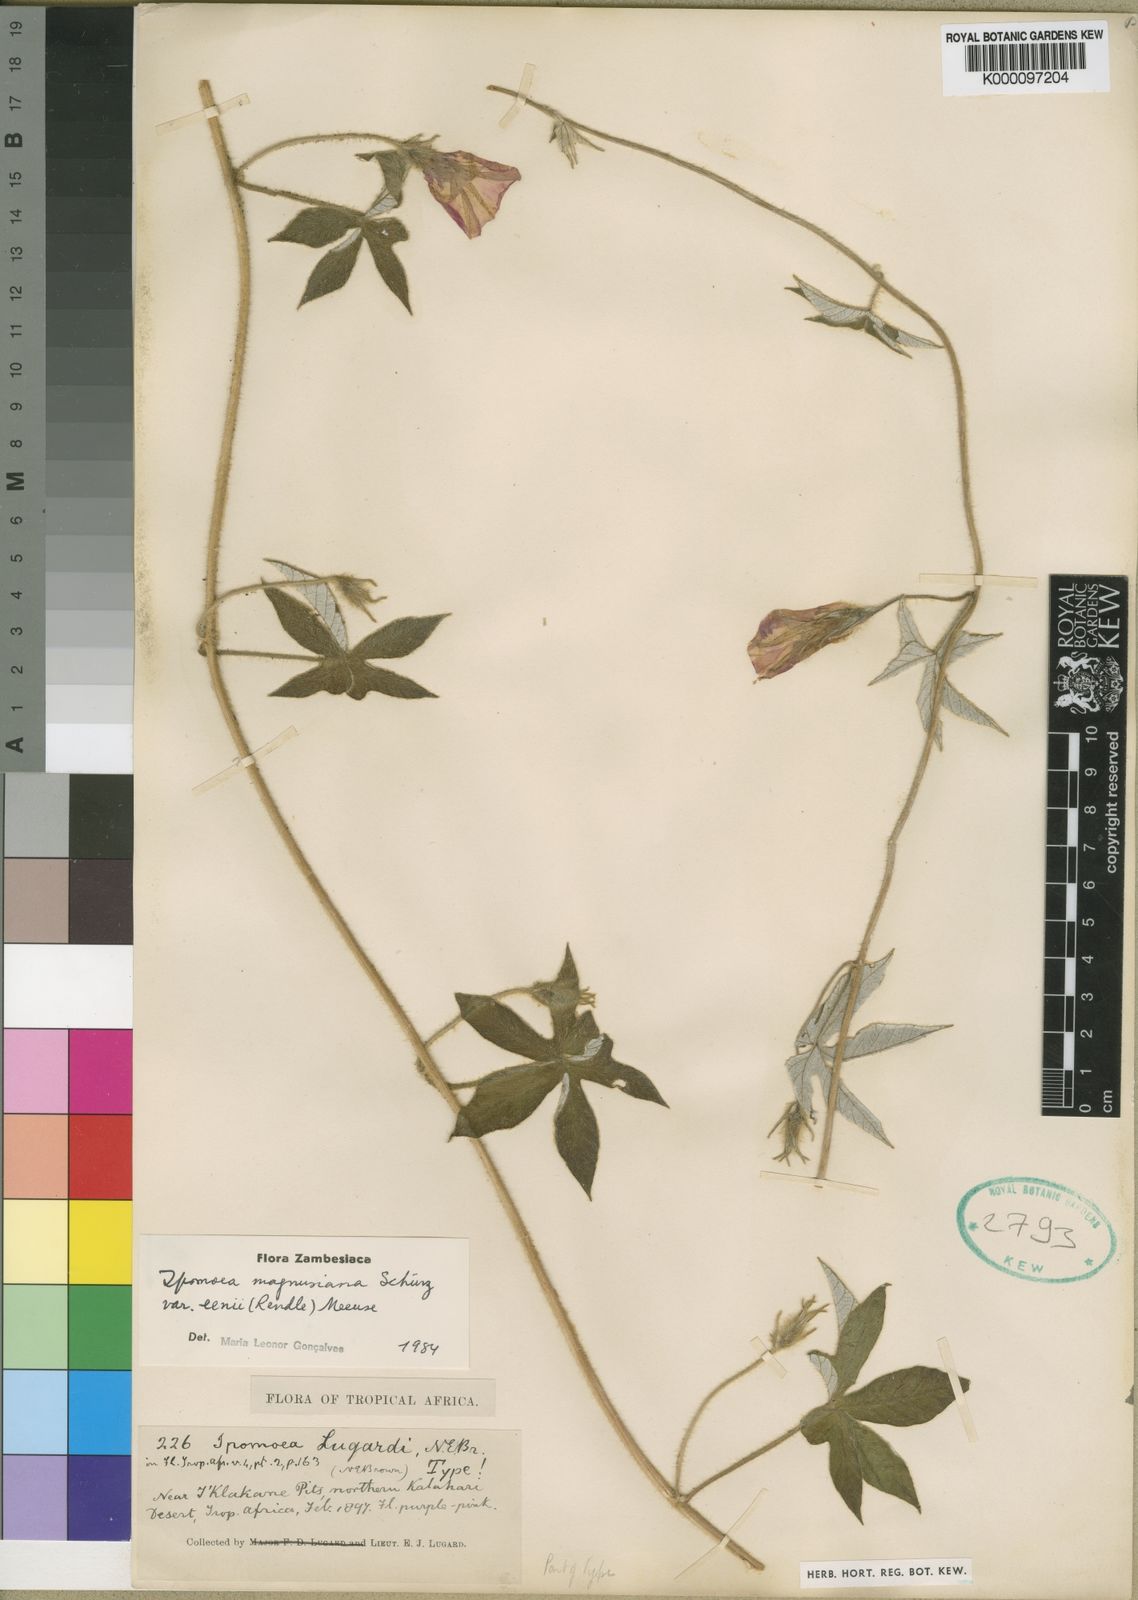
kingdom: Plantae
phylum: Tracheophyta
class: Magnoliopsida
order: Solanales
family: Convolvulaceae
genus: Ipomoea
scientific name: Ipomoea magnusiana
